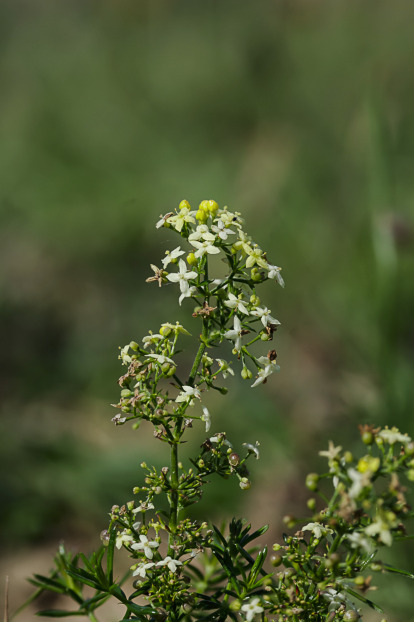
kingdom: Plantae
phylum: Tracheophyta
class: Magnoliopsida
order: Gentianales
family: Rubiaceae
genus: Galium
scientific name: Galium
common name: Snerreslægten
